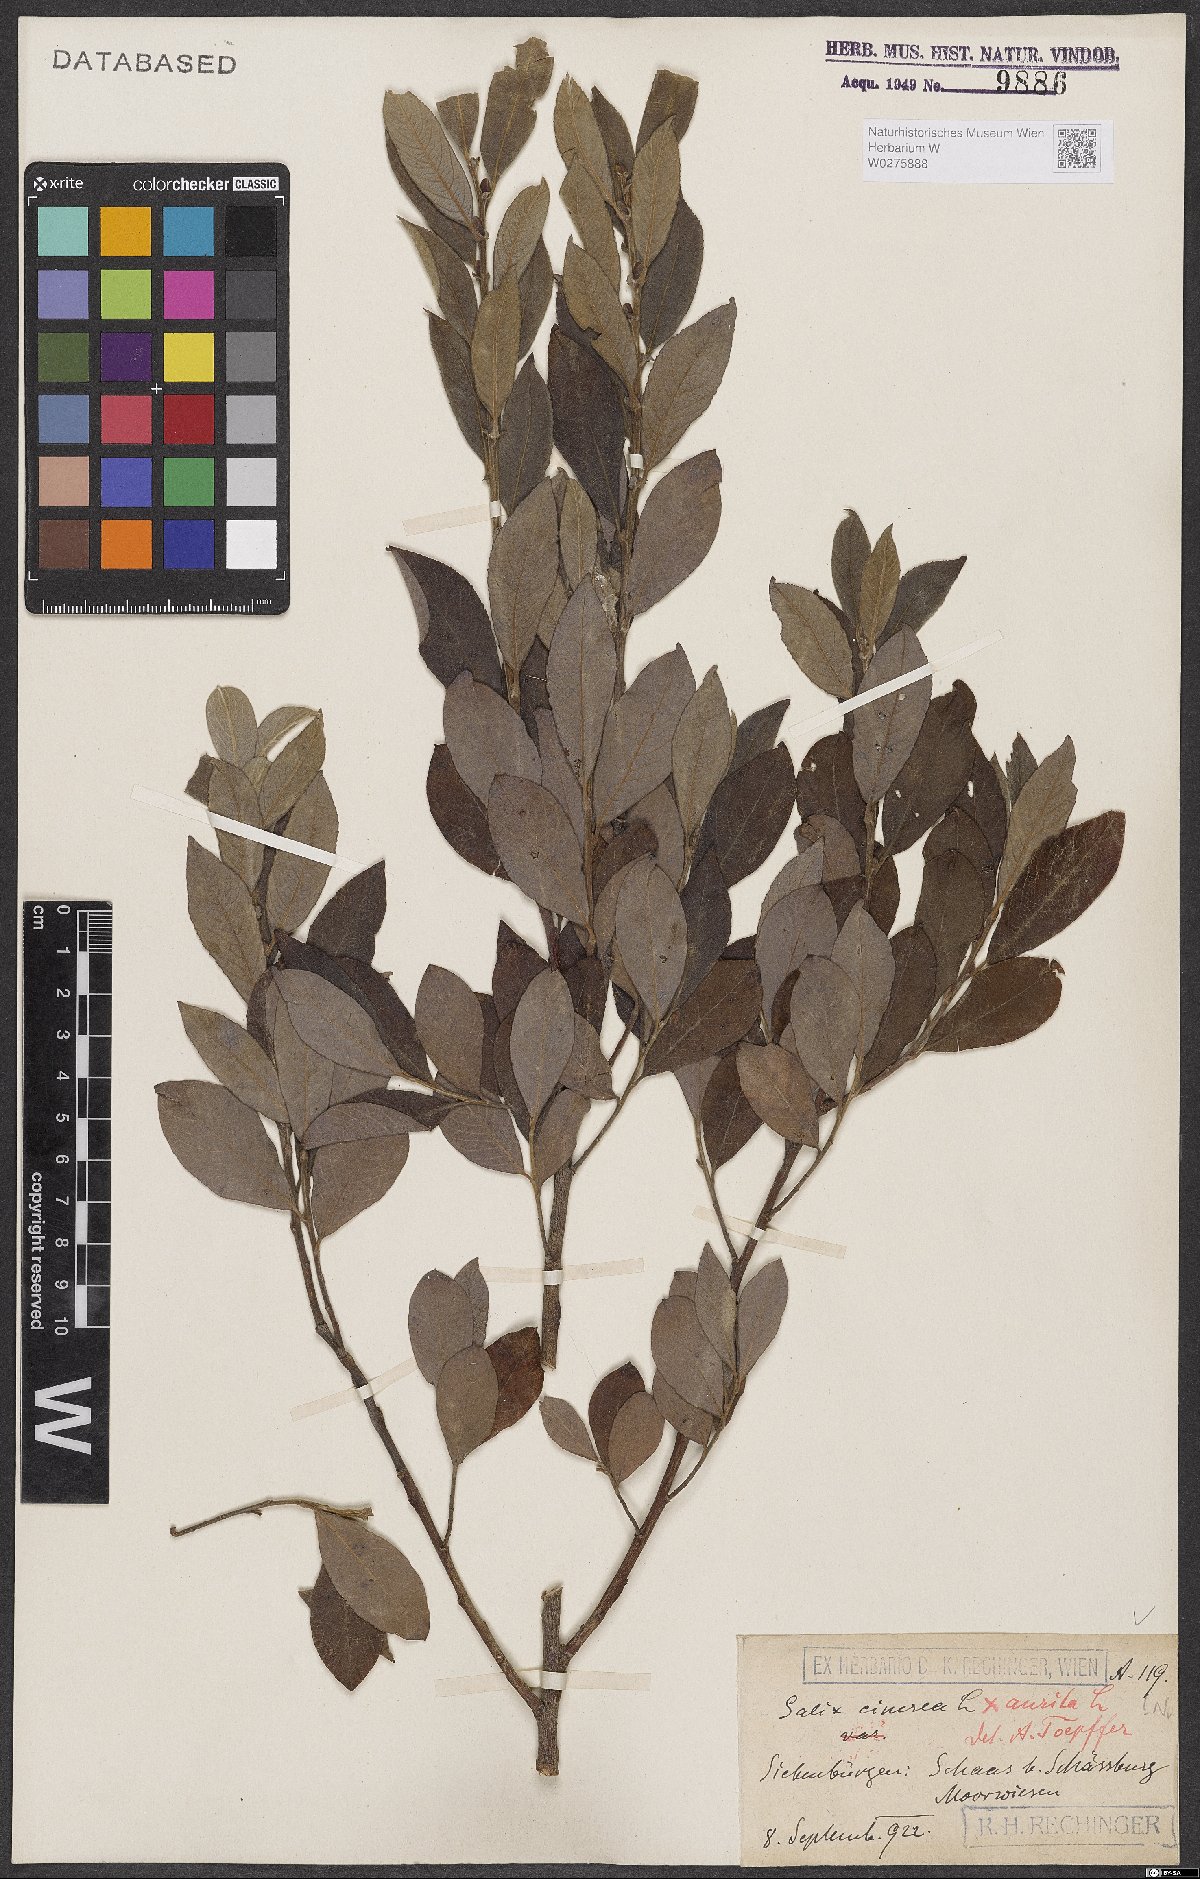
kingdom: Plantae
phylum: Tracheophyta
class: Magnoliopsida
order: Malpighiales
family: Salicaceae
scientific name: Salicaceae
